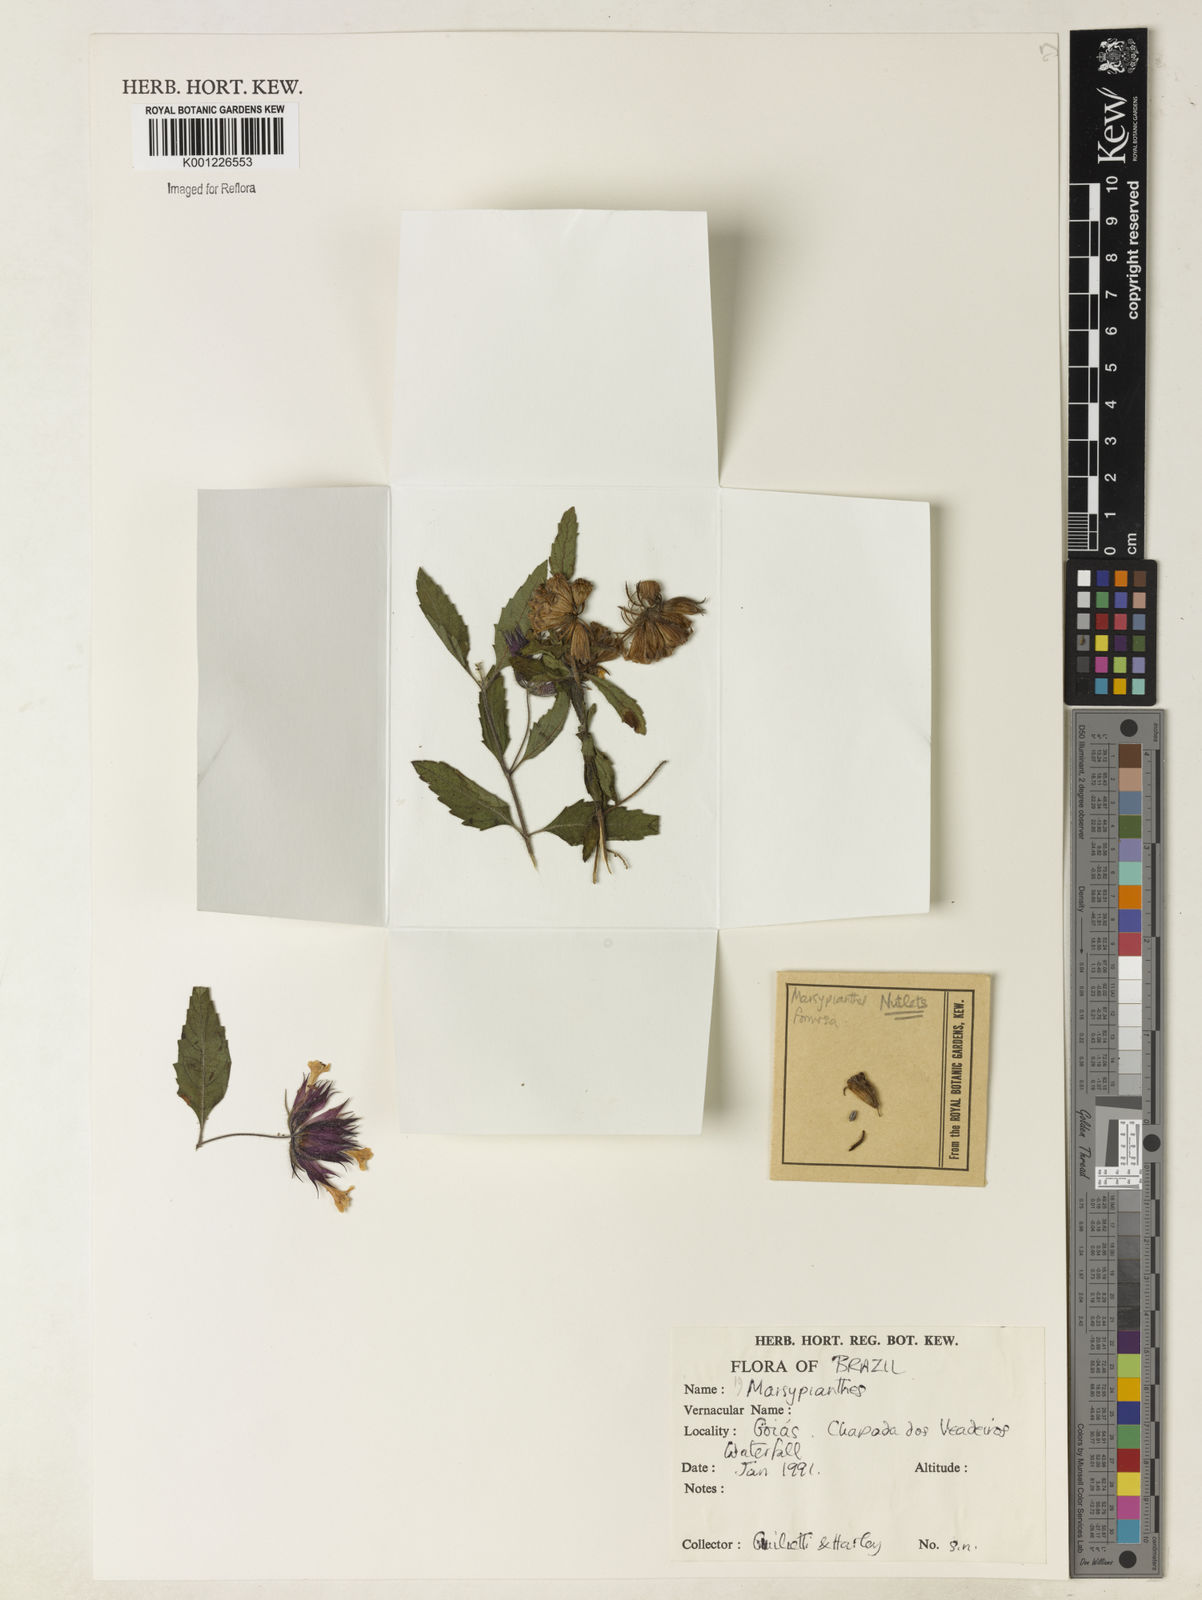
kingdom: Plantae
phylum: Tracheophyta
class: Magnoliopsida
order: Lamiales
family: Lamiaceae
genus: Marsypianthes
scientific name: Marsypianthes burchellii
